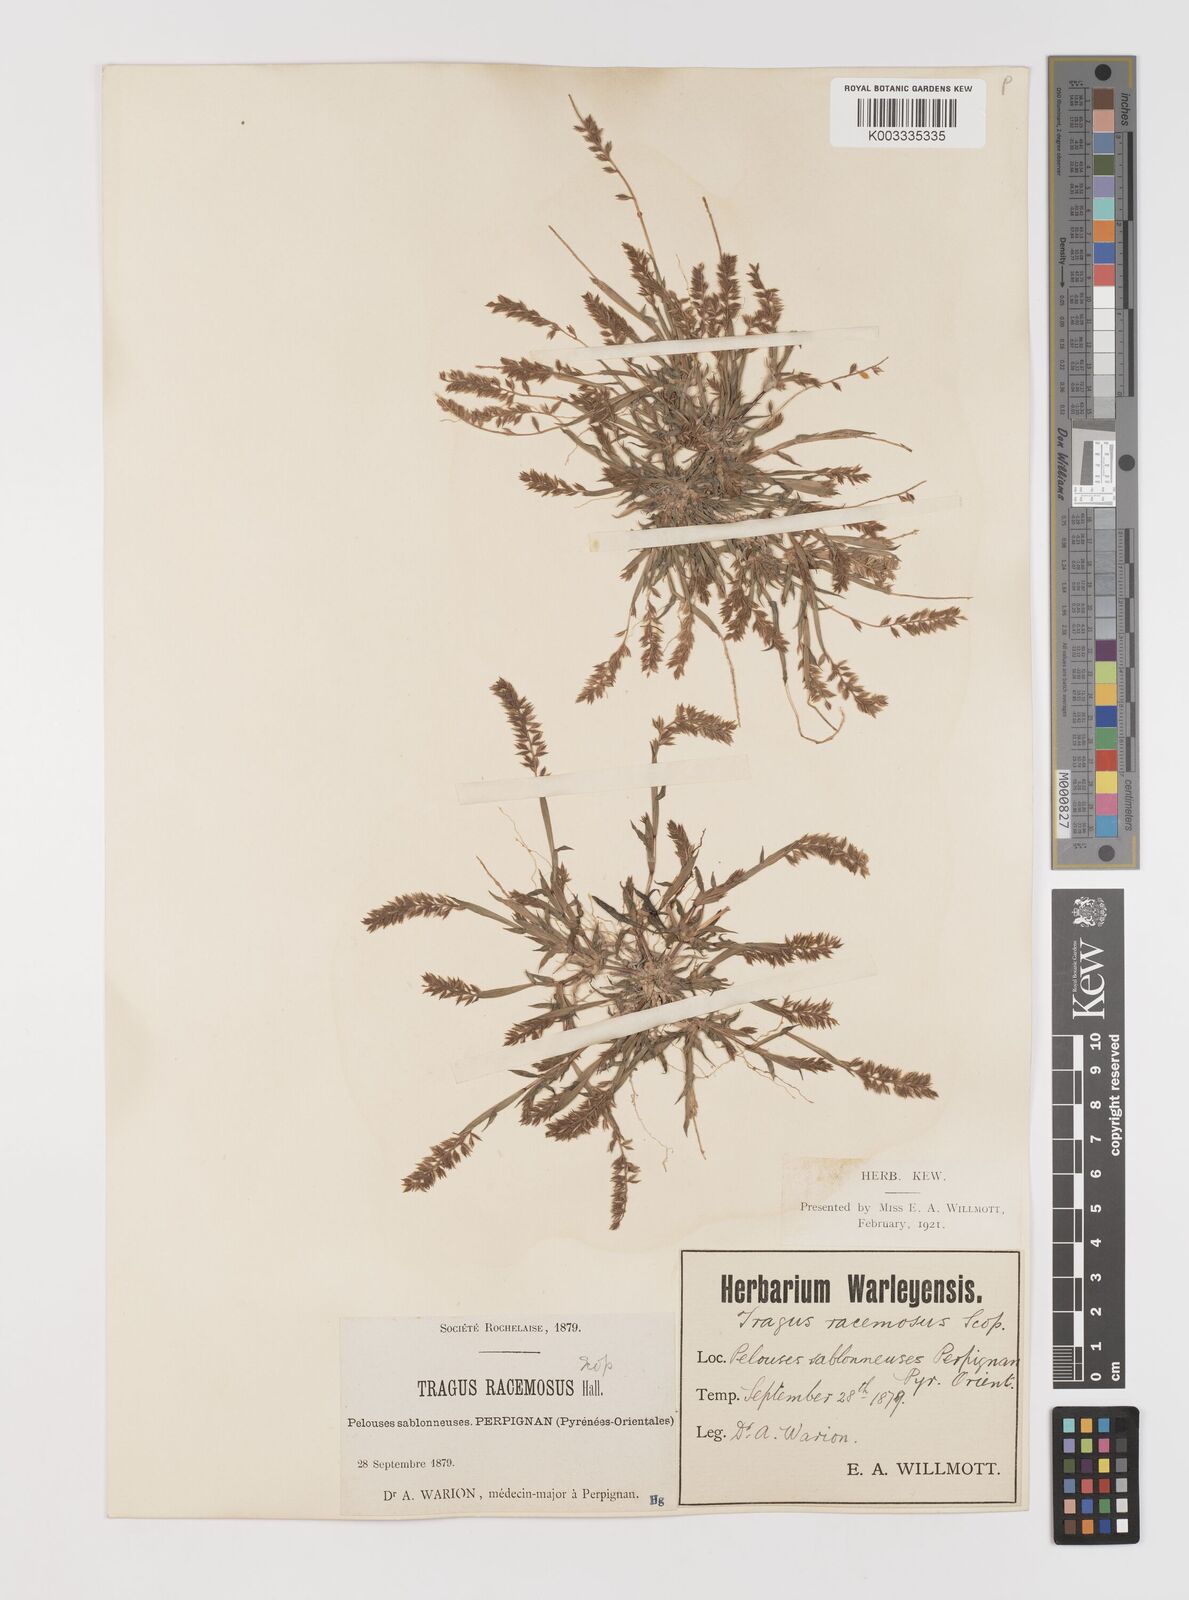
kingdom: Plantae
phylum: Tracheophyta
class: Liliopsida
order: Poales
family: Poaceae
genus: Tragus
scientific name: Tragus racemosus
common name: European bur-grass
